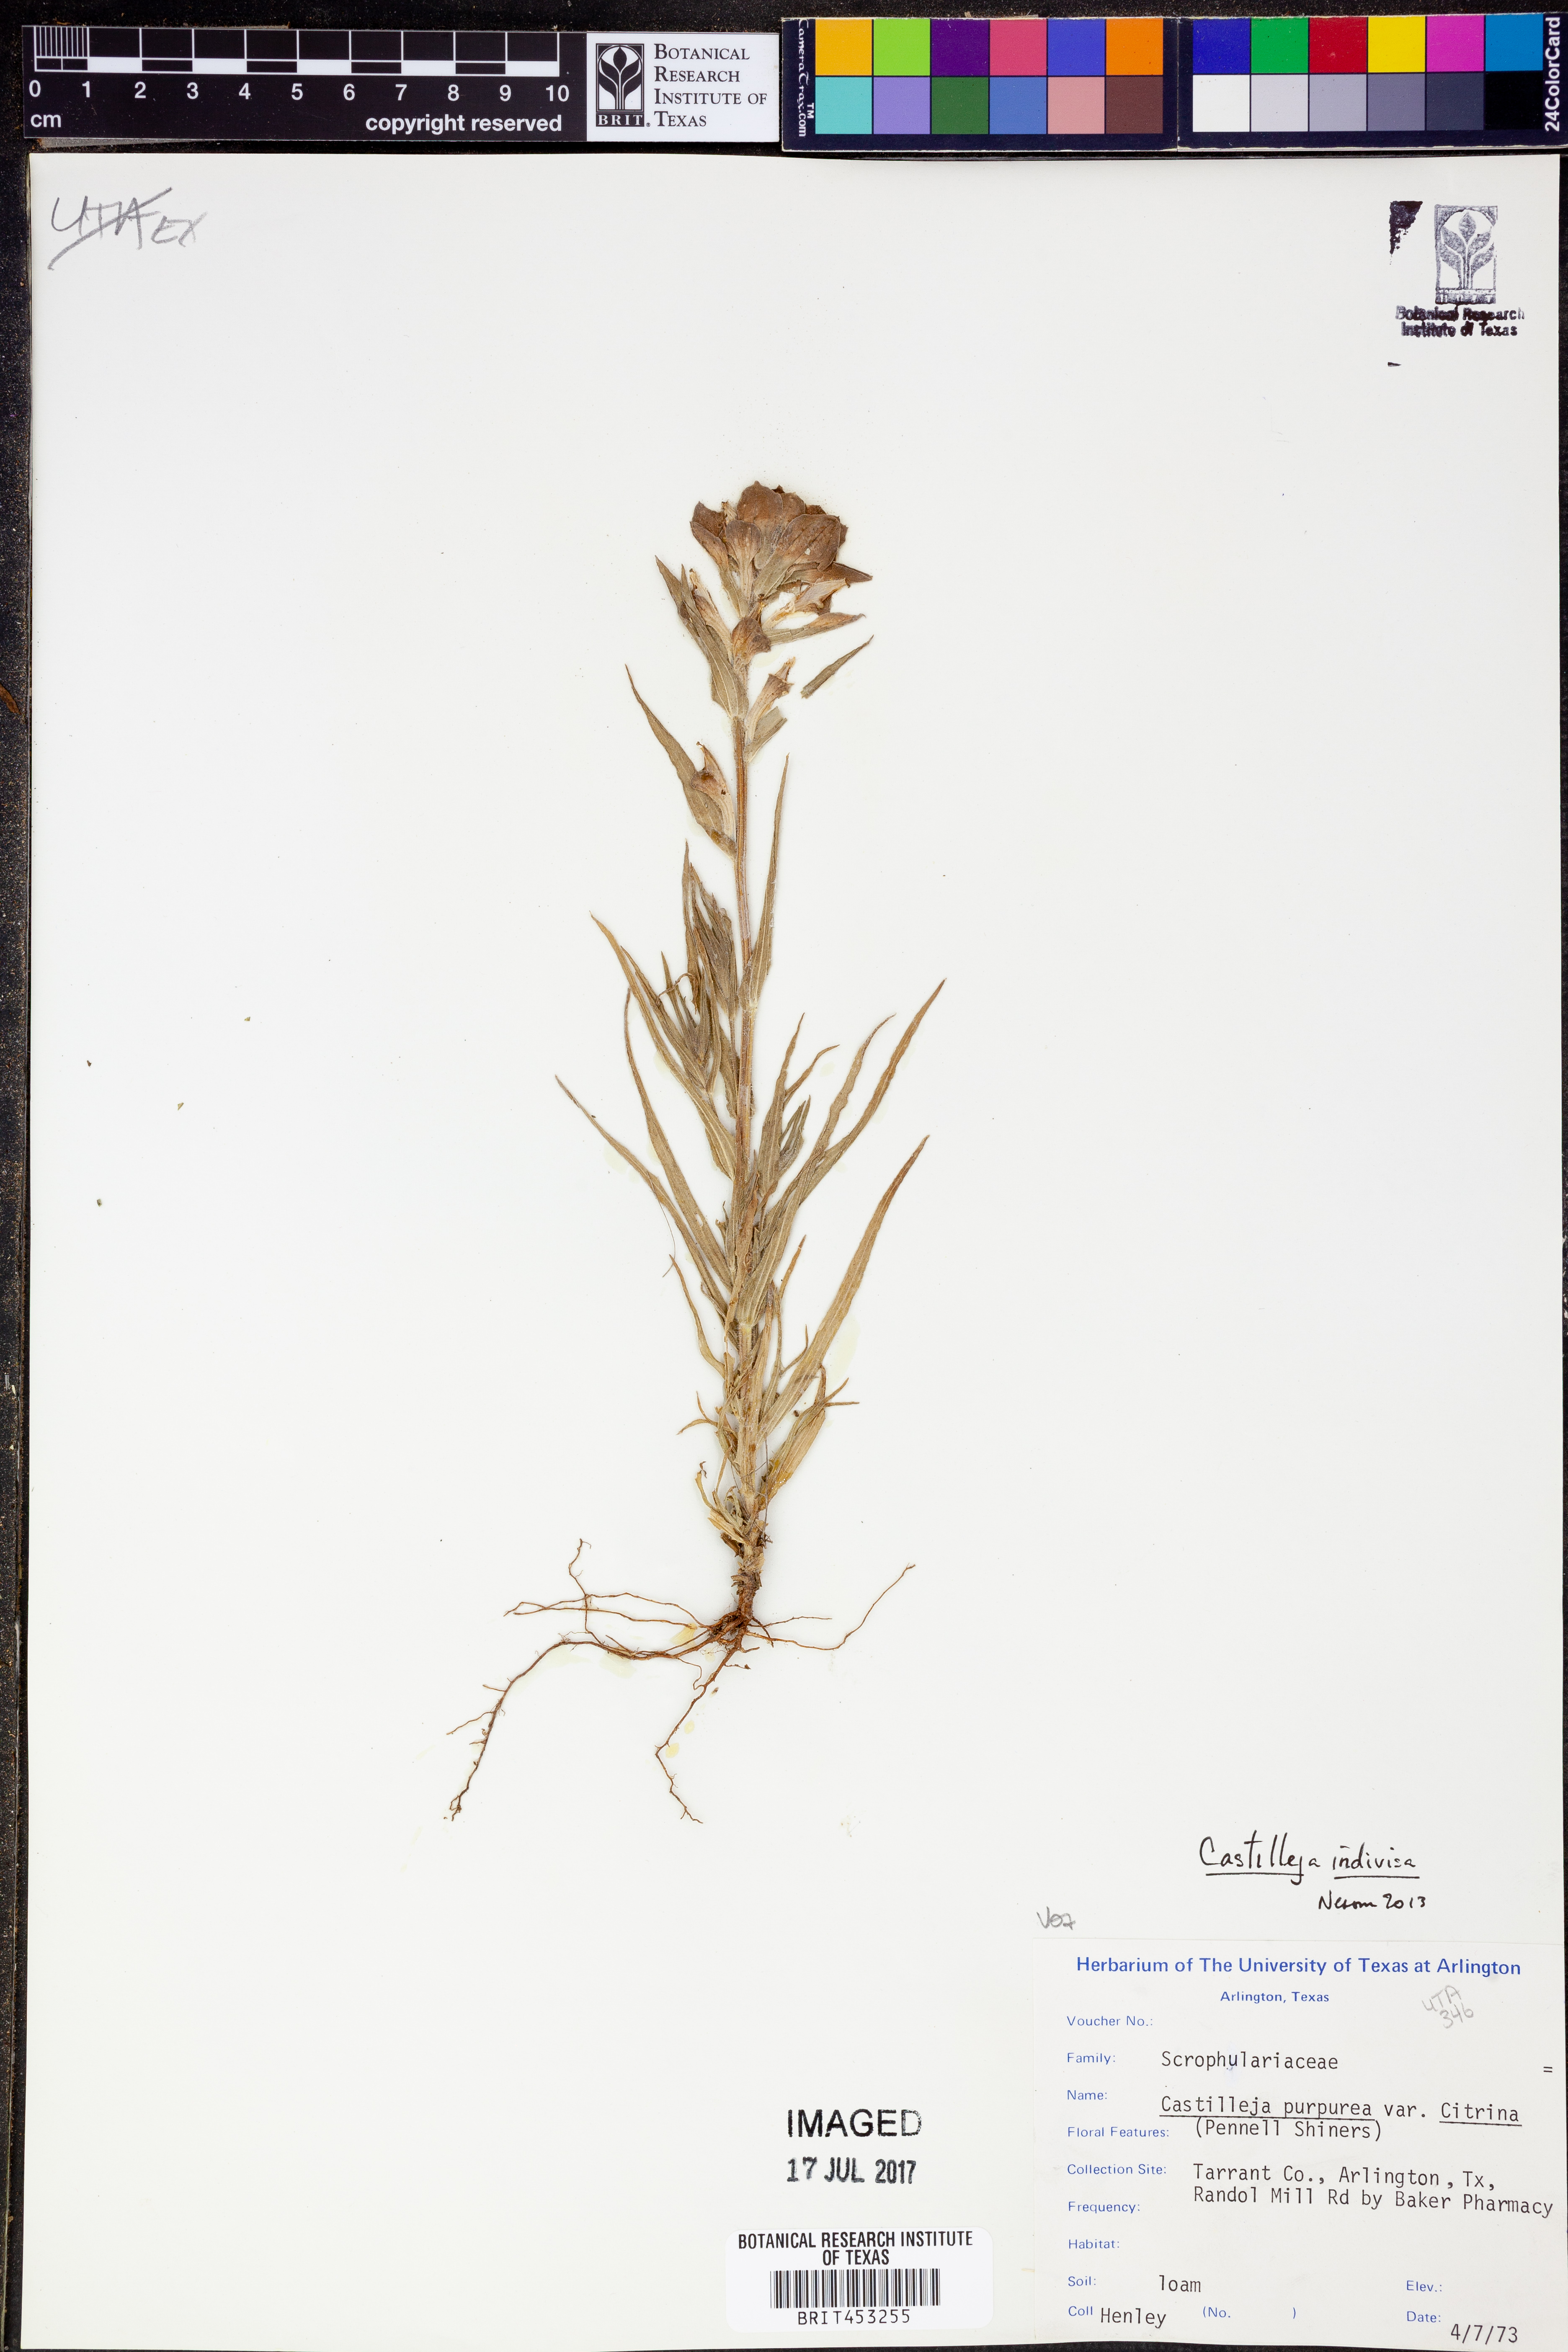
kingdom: Plantae
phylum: Tracheophyta
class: Magnoliopsida
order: Lamiales
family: Orobanchaceae
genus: Castilleja
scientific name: Castilleja indivisa
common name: Texas paintbrush
